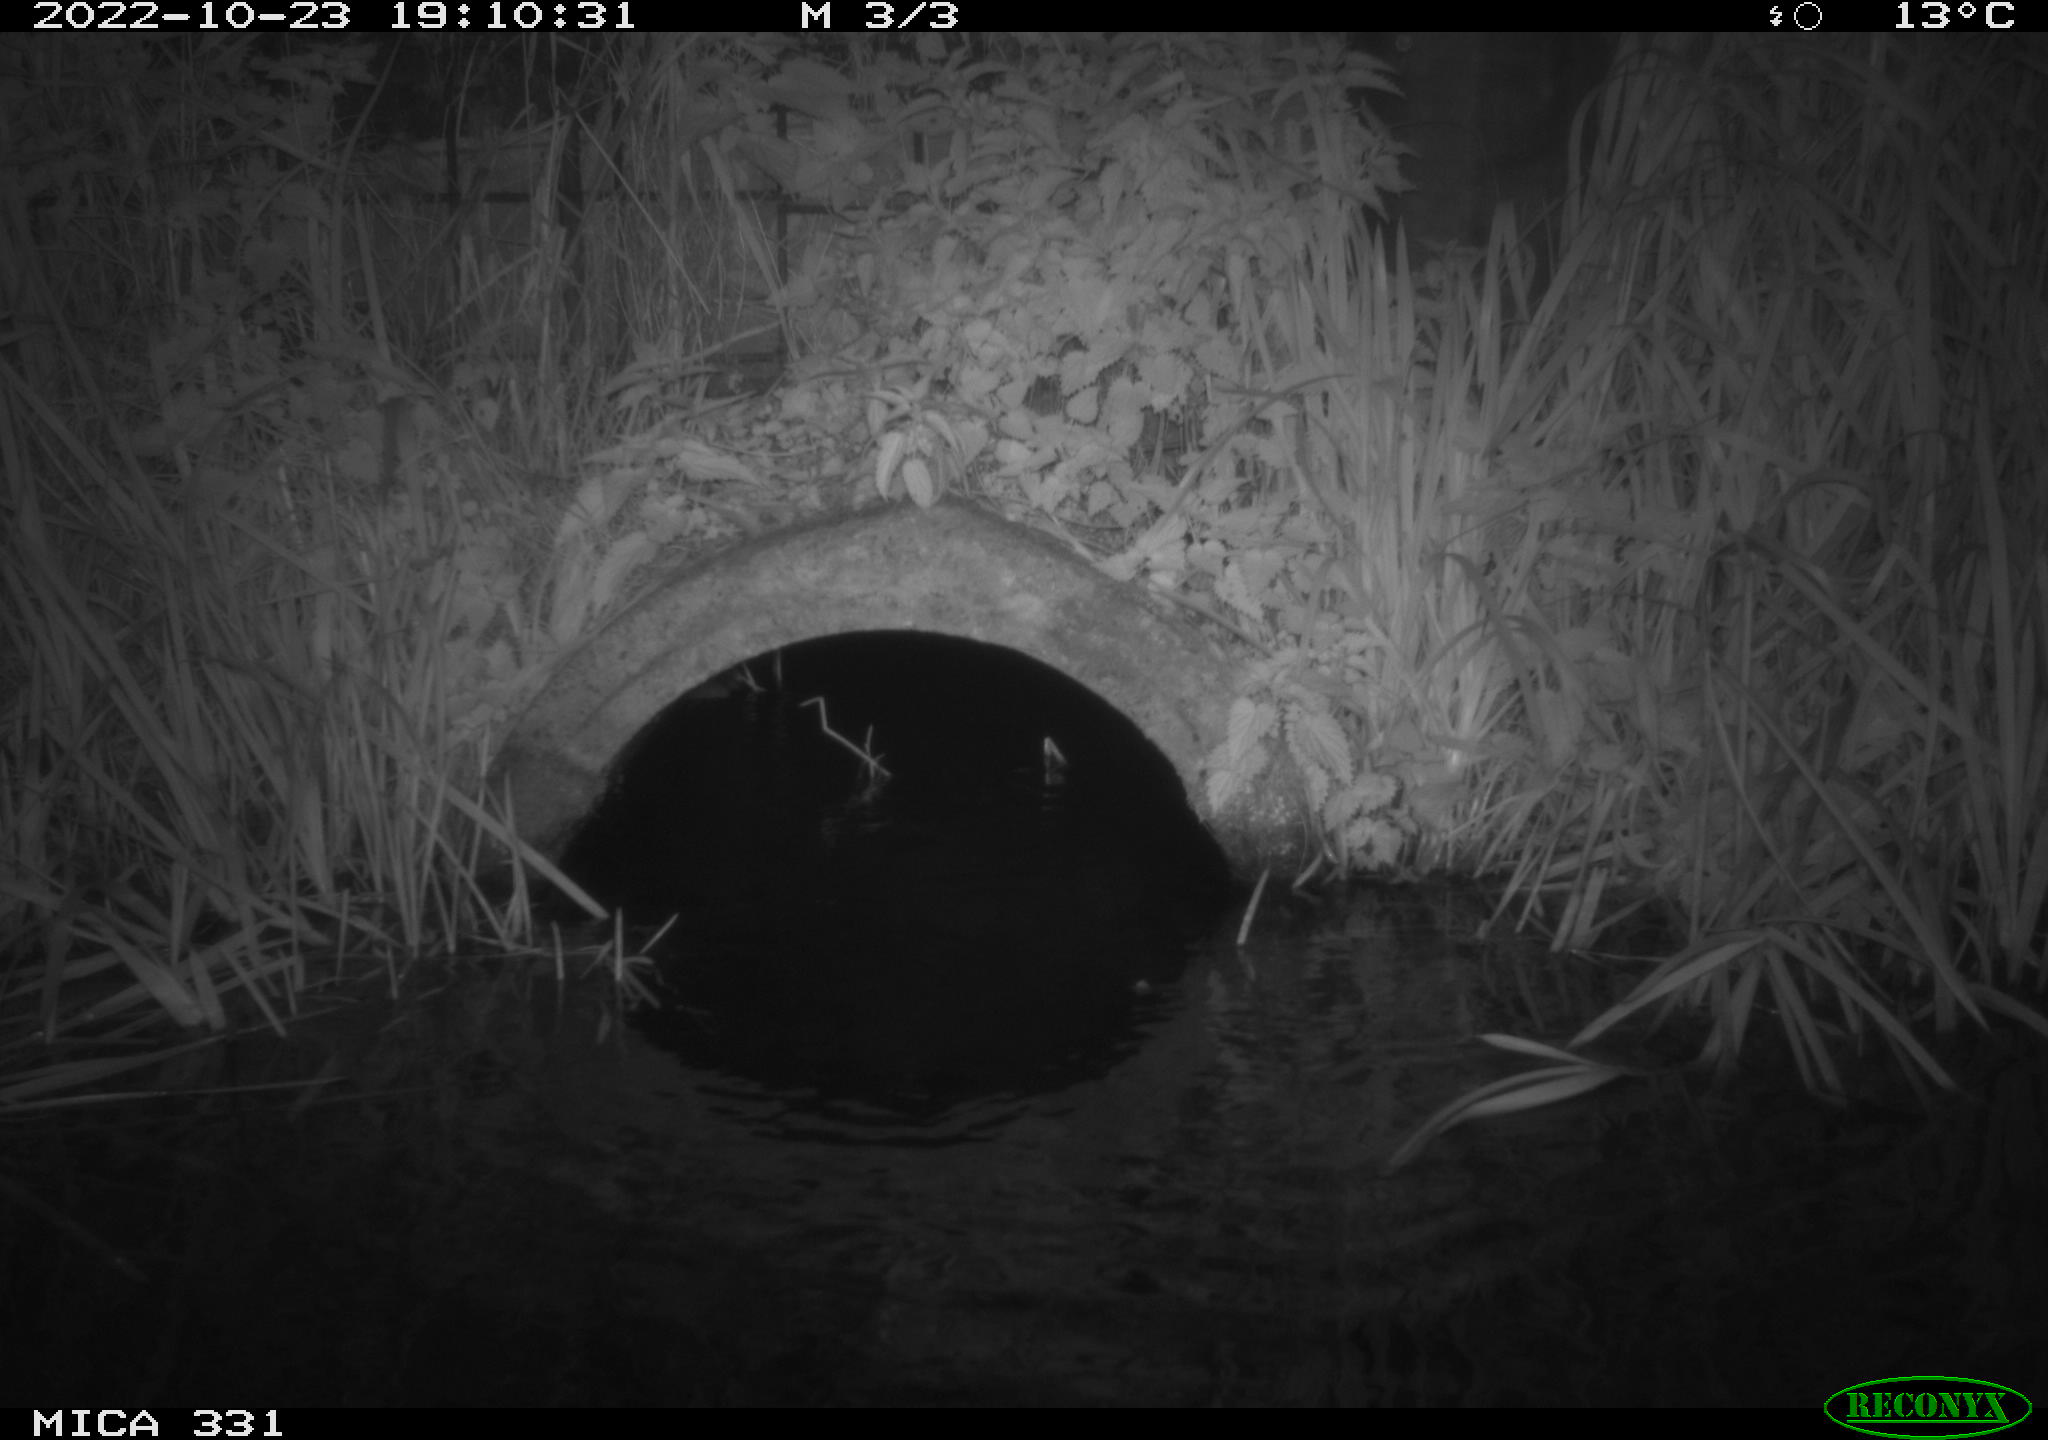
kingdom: Animalia
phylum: Chordata
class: Mammalia
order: Rodentia
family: Muridae
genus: Rattus
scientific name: Rattus norvegicus
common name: Brown rat
